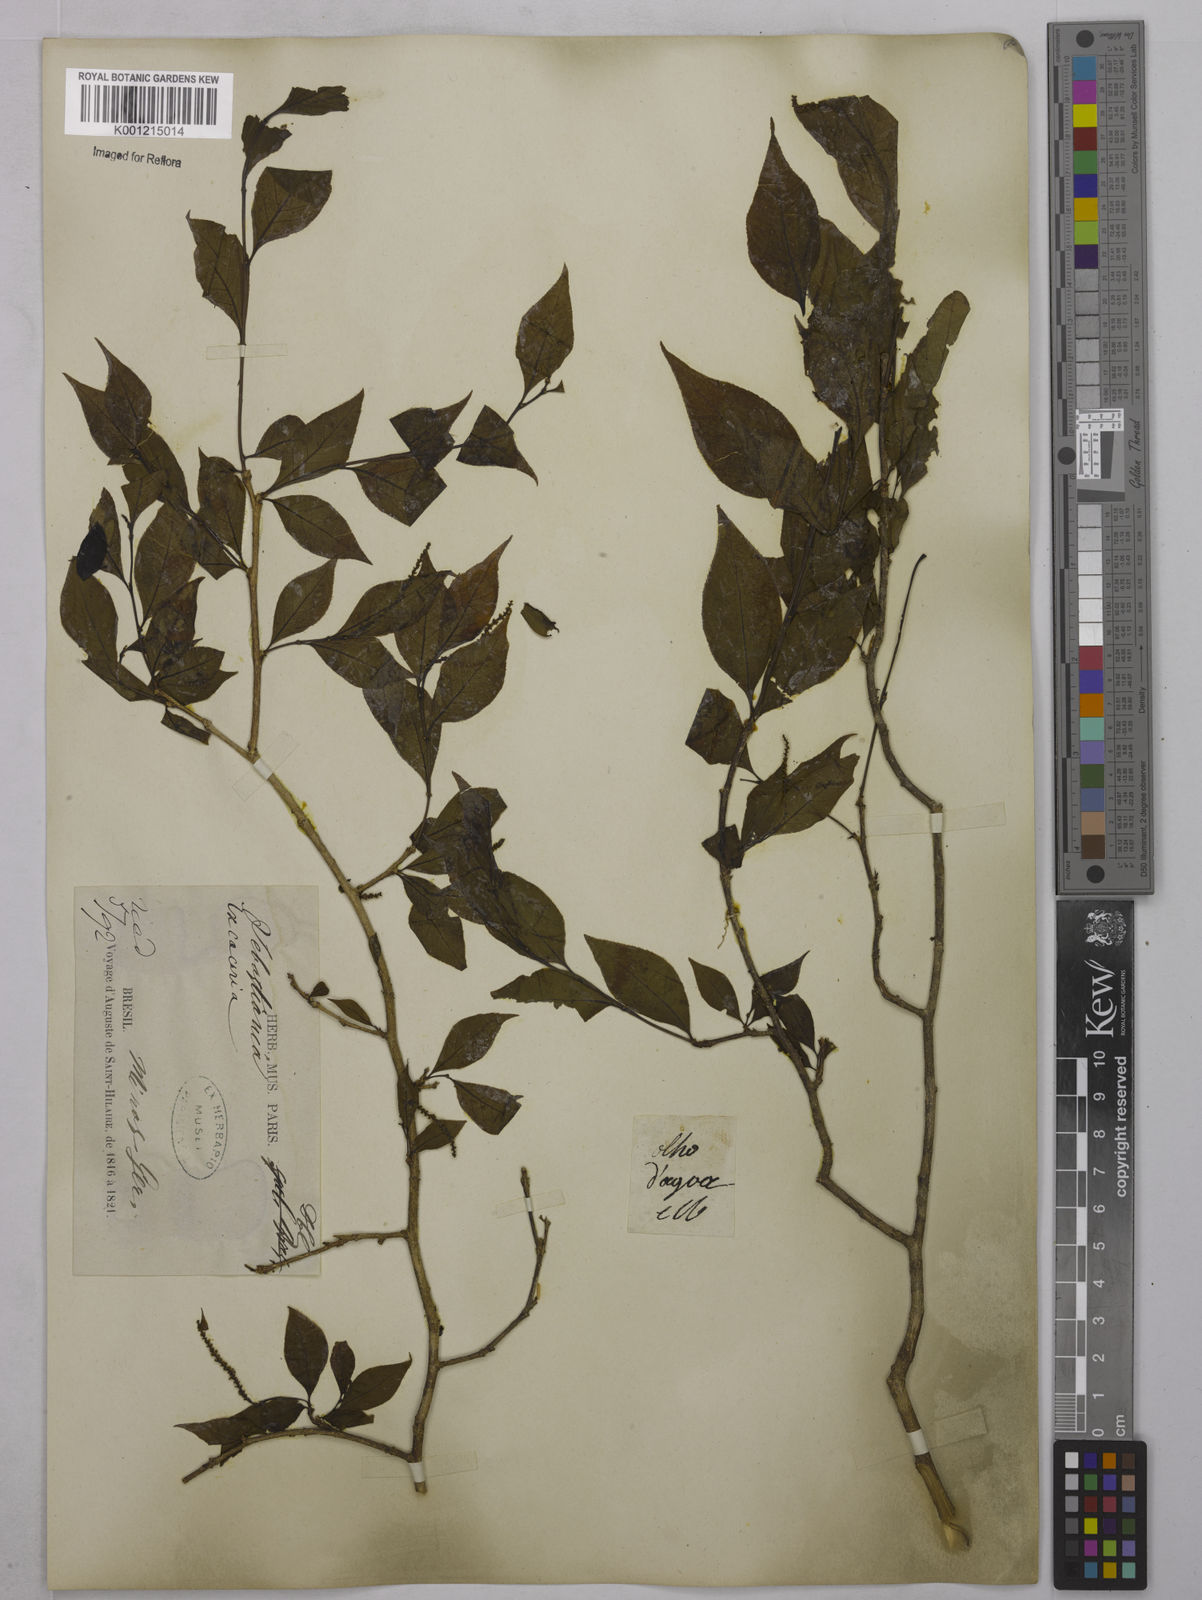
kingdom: Plantae
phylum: Tracheophyta
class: Magnoliopsida
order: Malpighiales
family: Euphorbiaceae
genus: Sebastiania
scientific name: Sebastiania brasiliensis
